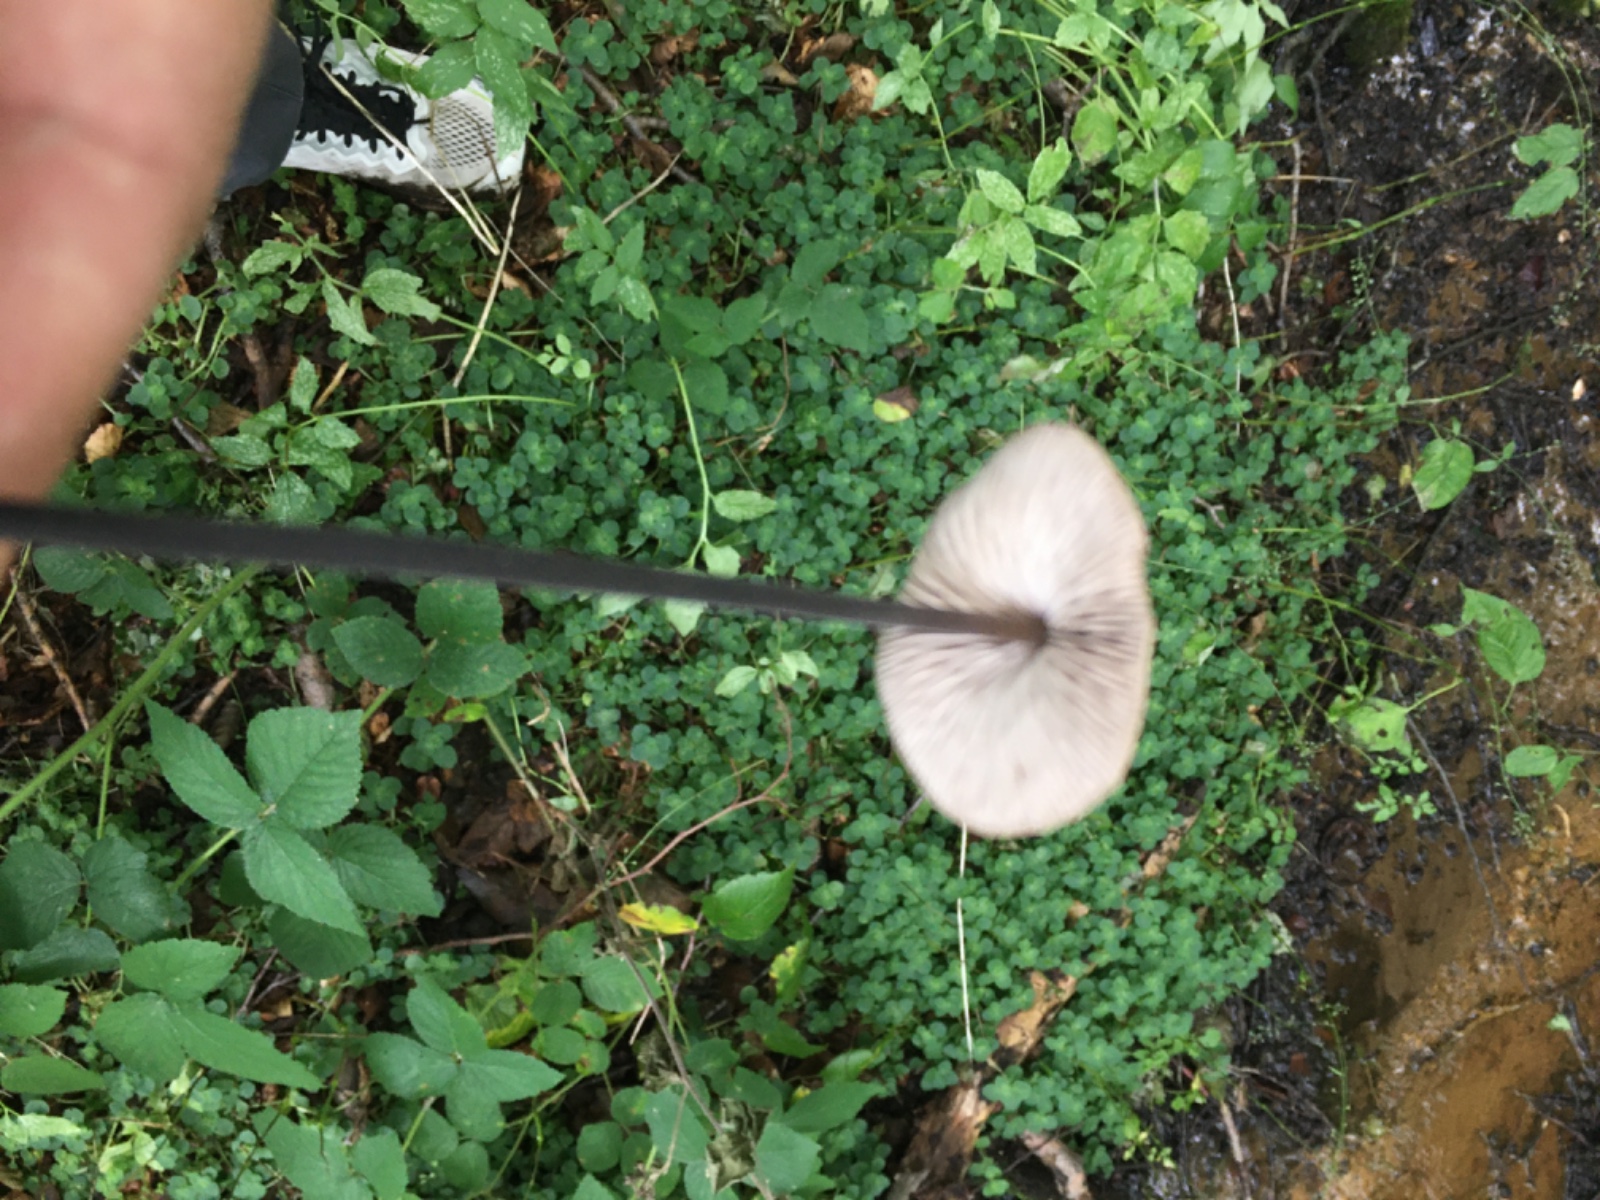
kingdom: Fungi
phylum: Basidiomycota
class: Agaricomycetes
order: Agaricales
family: Omphalotaceae
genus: Mycetinis
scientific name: Mycetinis alliaceus
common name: stor løghat
